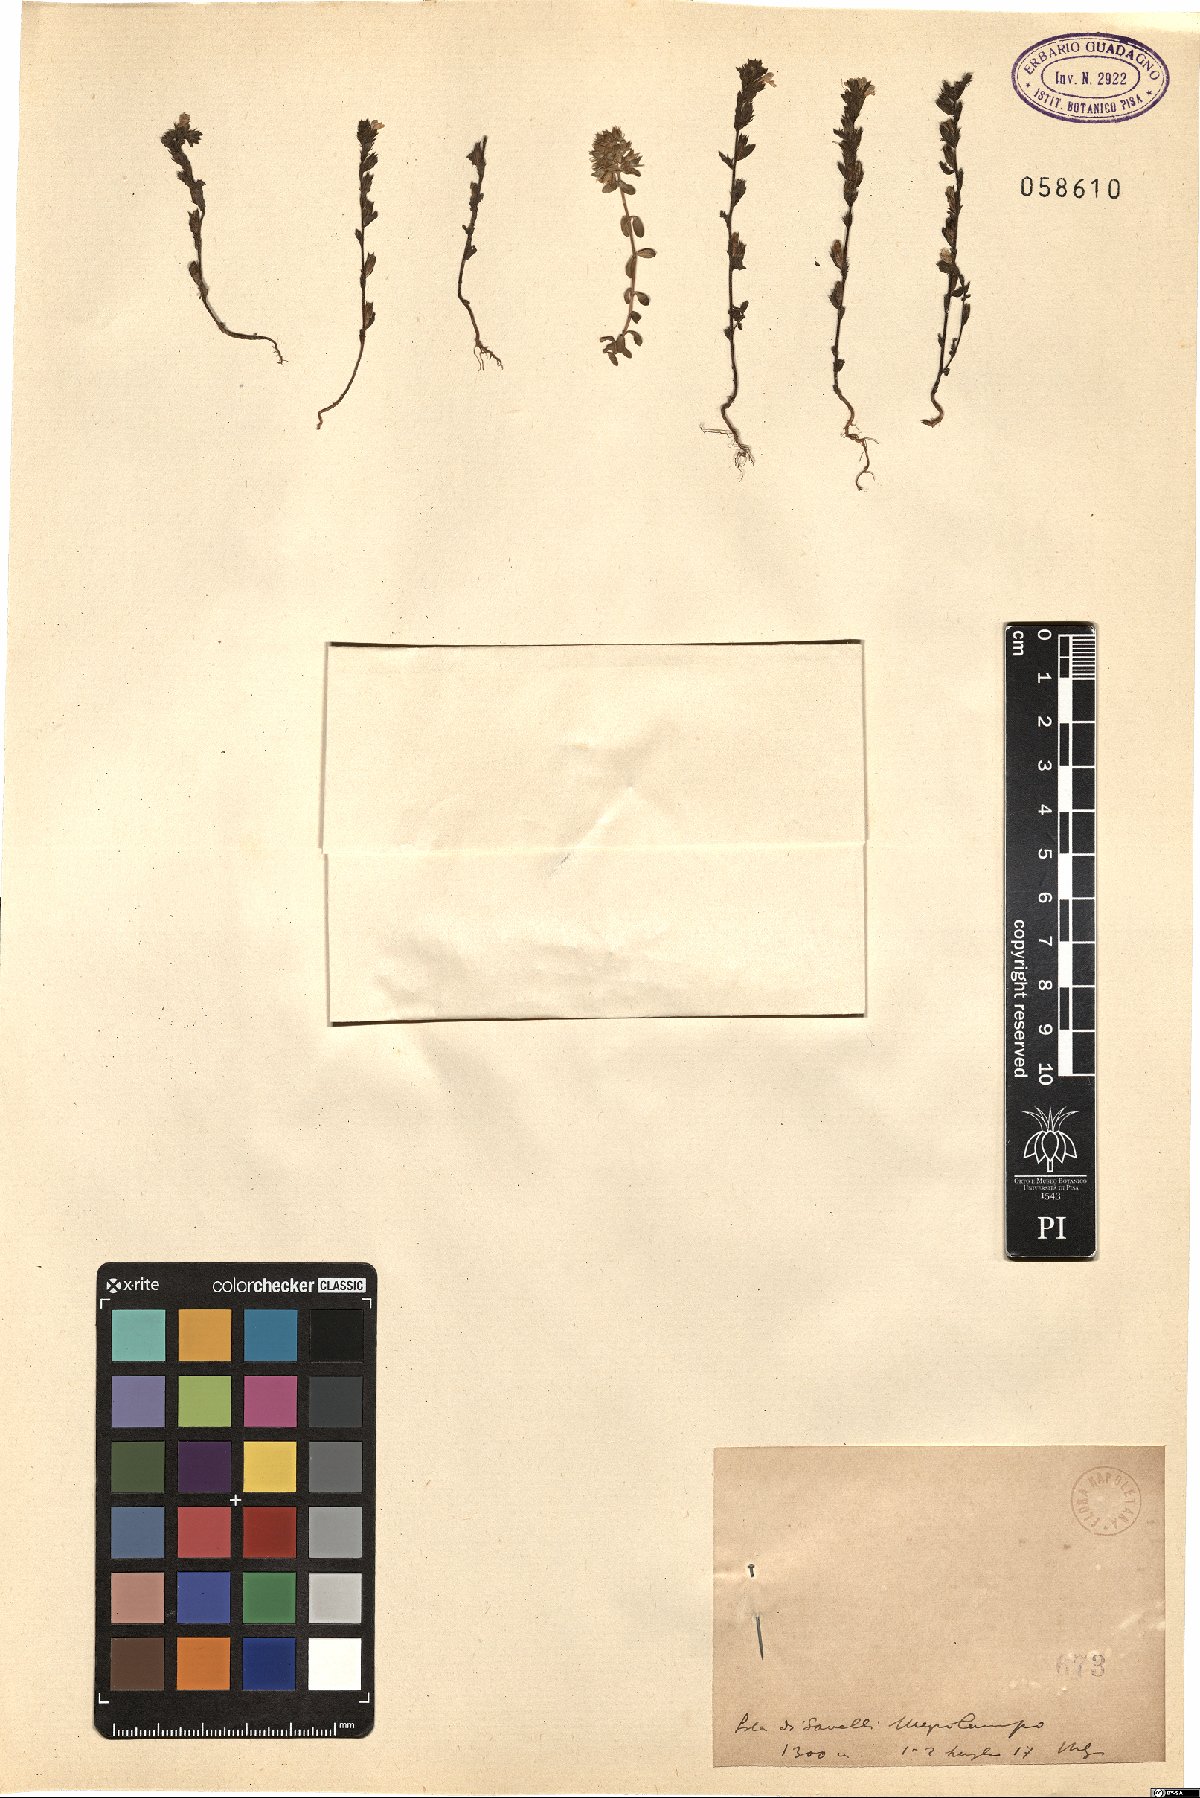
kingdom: Plantae
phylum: Tracheophyta
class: Magnoliopsida
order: Lamiales
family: Orobanchaceae
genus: Euphrasia
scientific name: Euphrasia
